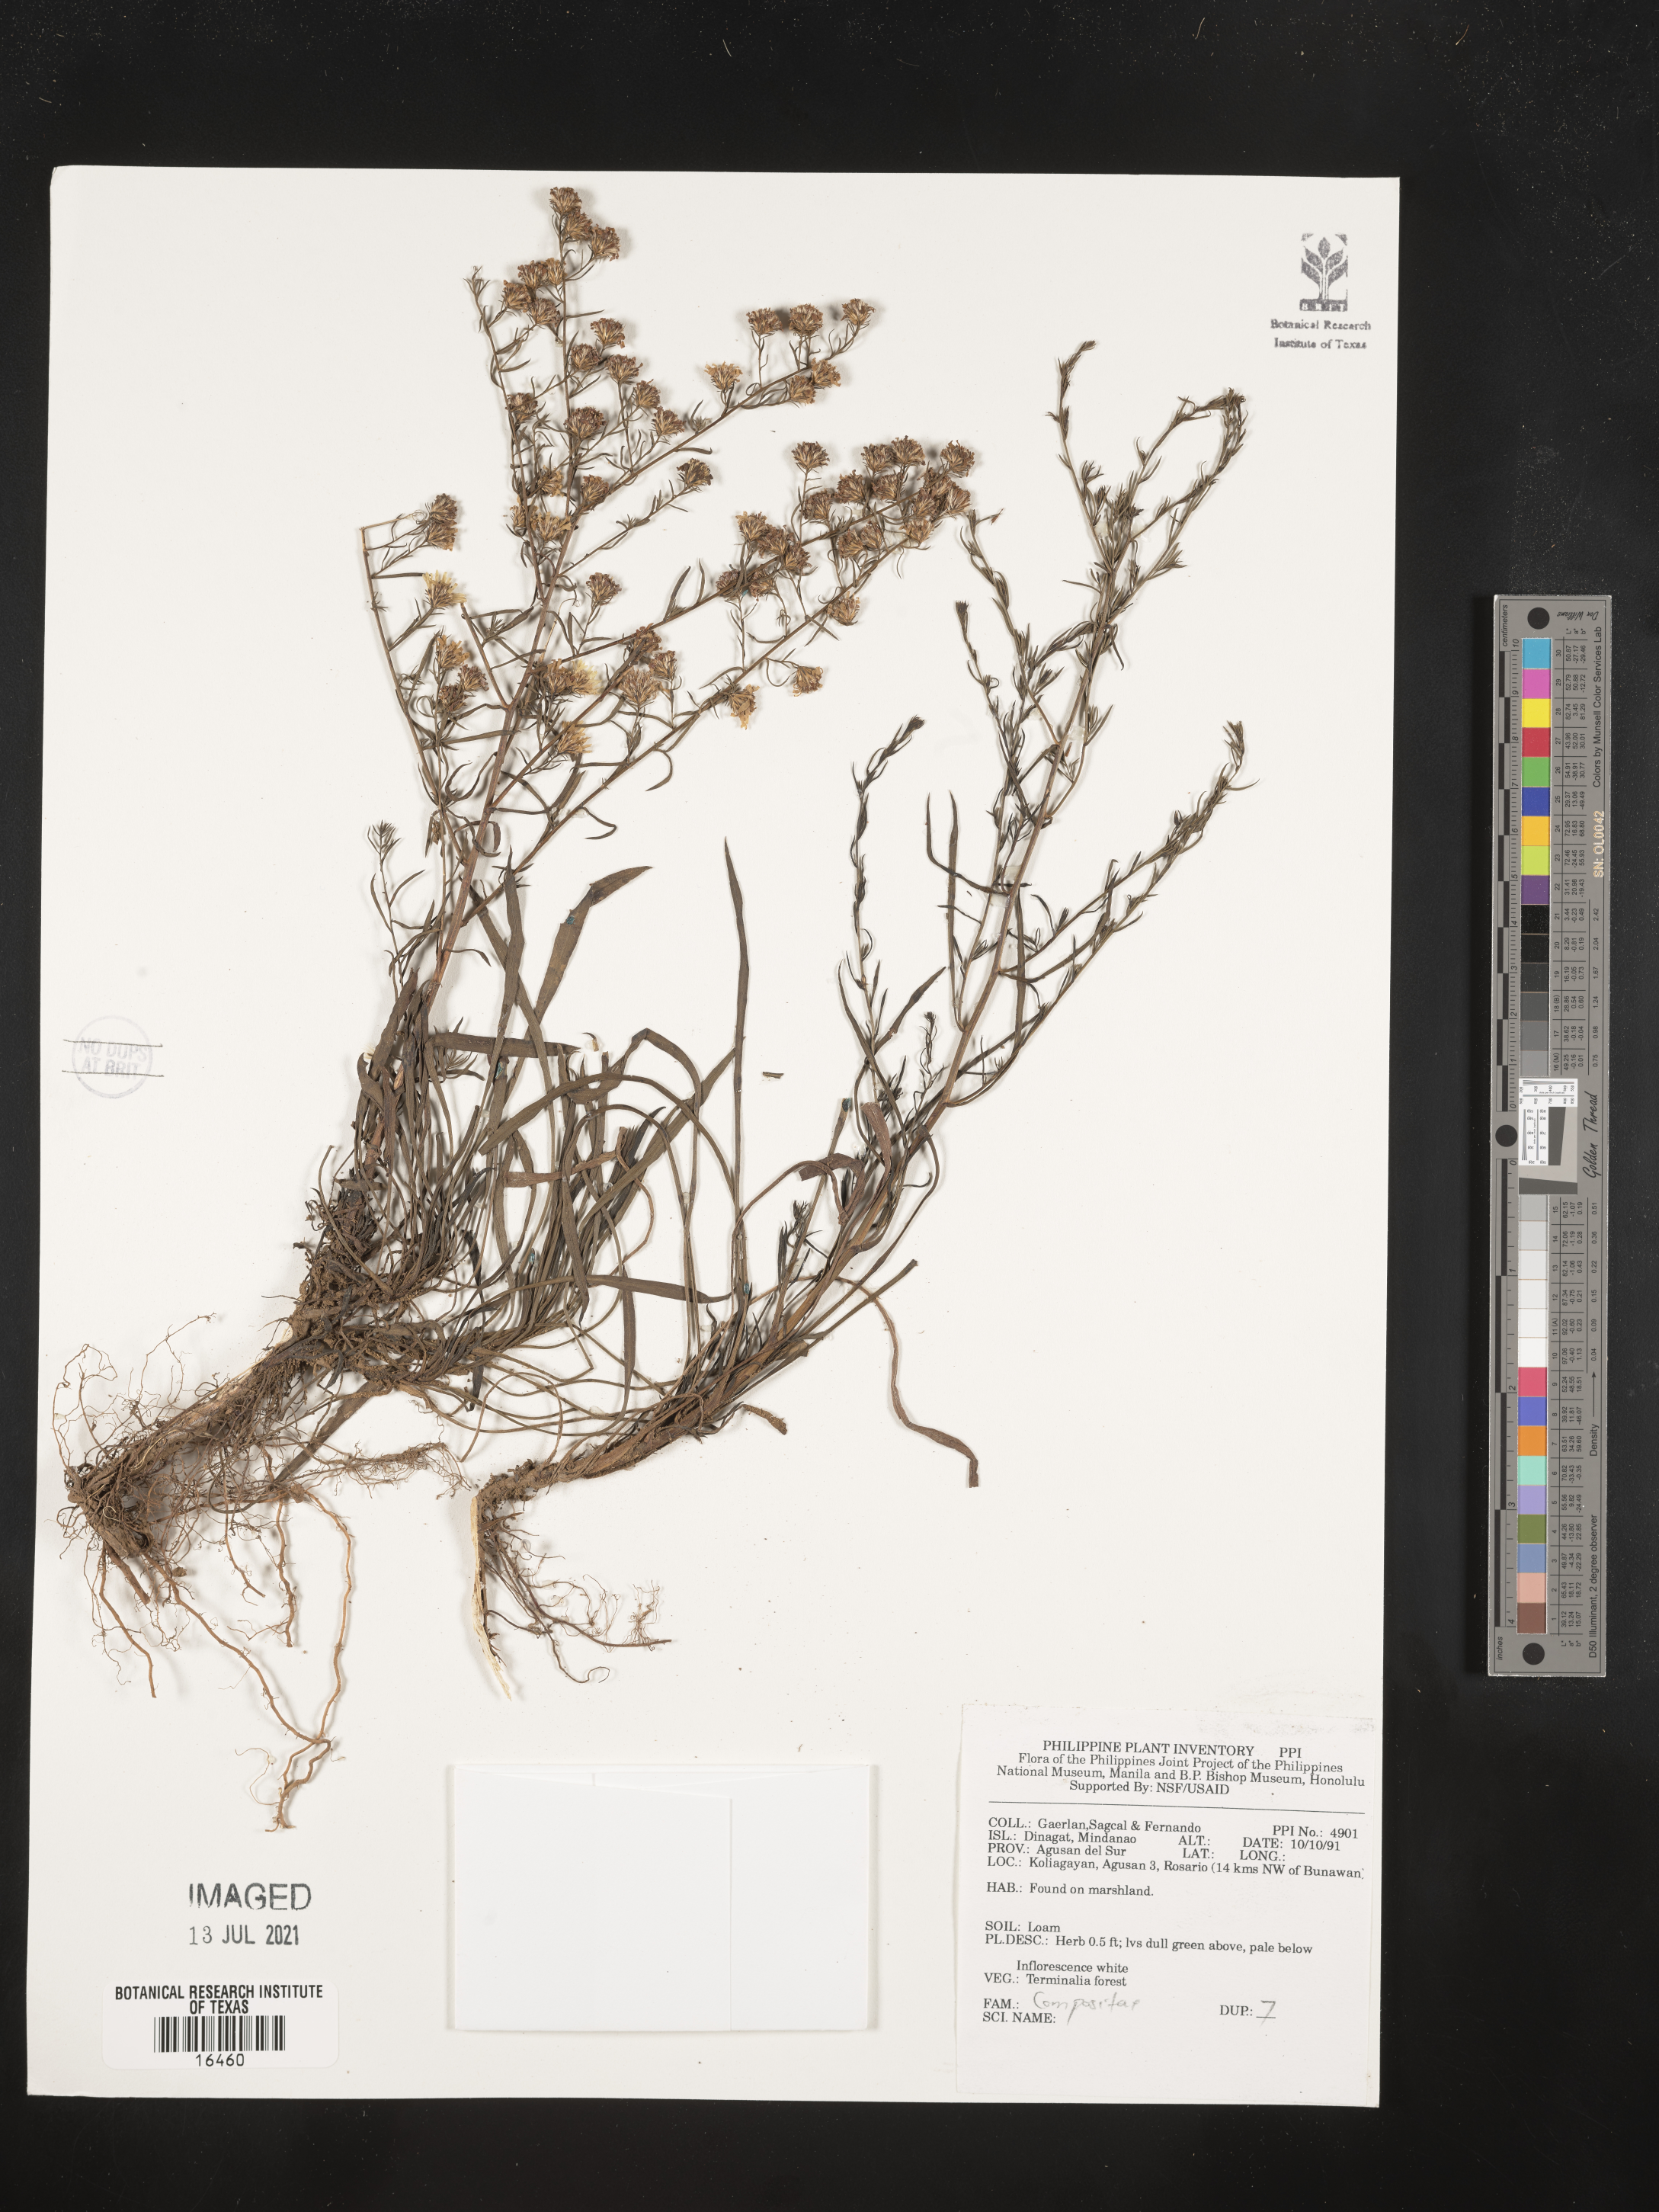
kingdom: Plantae
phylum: Tracheophyta
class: Magnoliopsida
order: Asterales
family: Asteraceae
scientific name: Asteraceae
